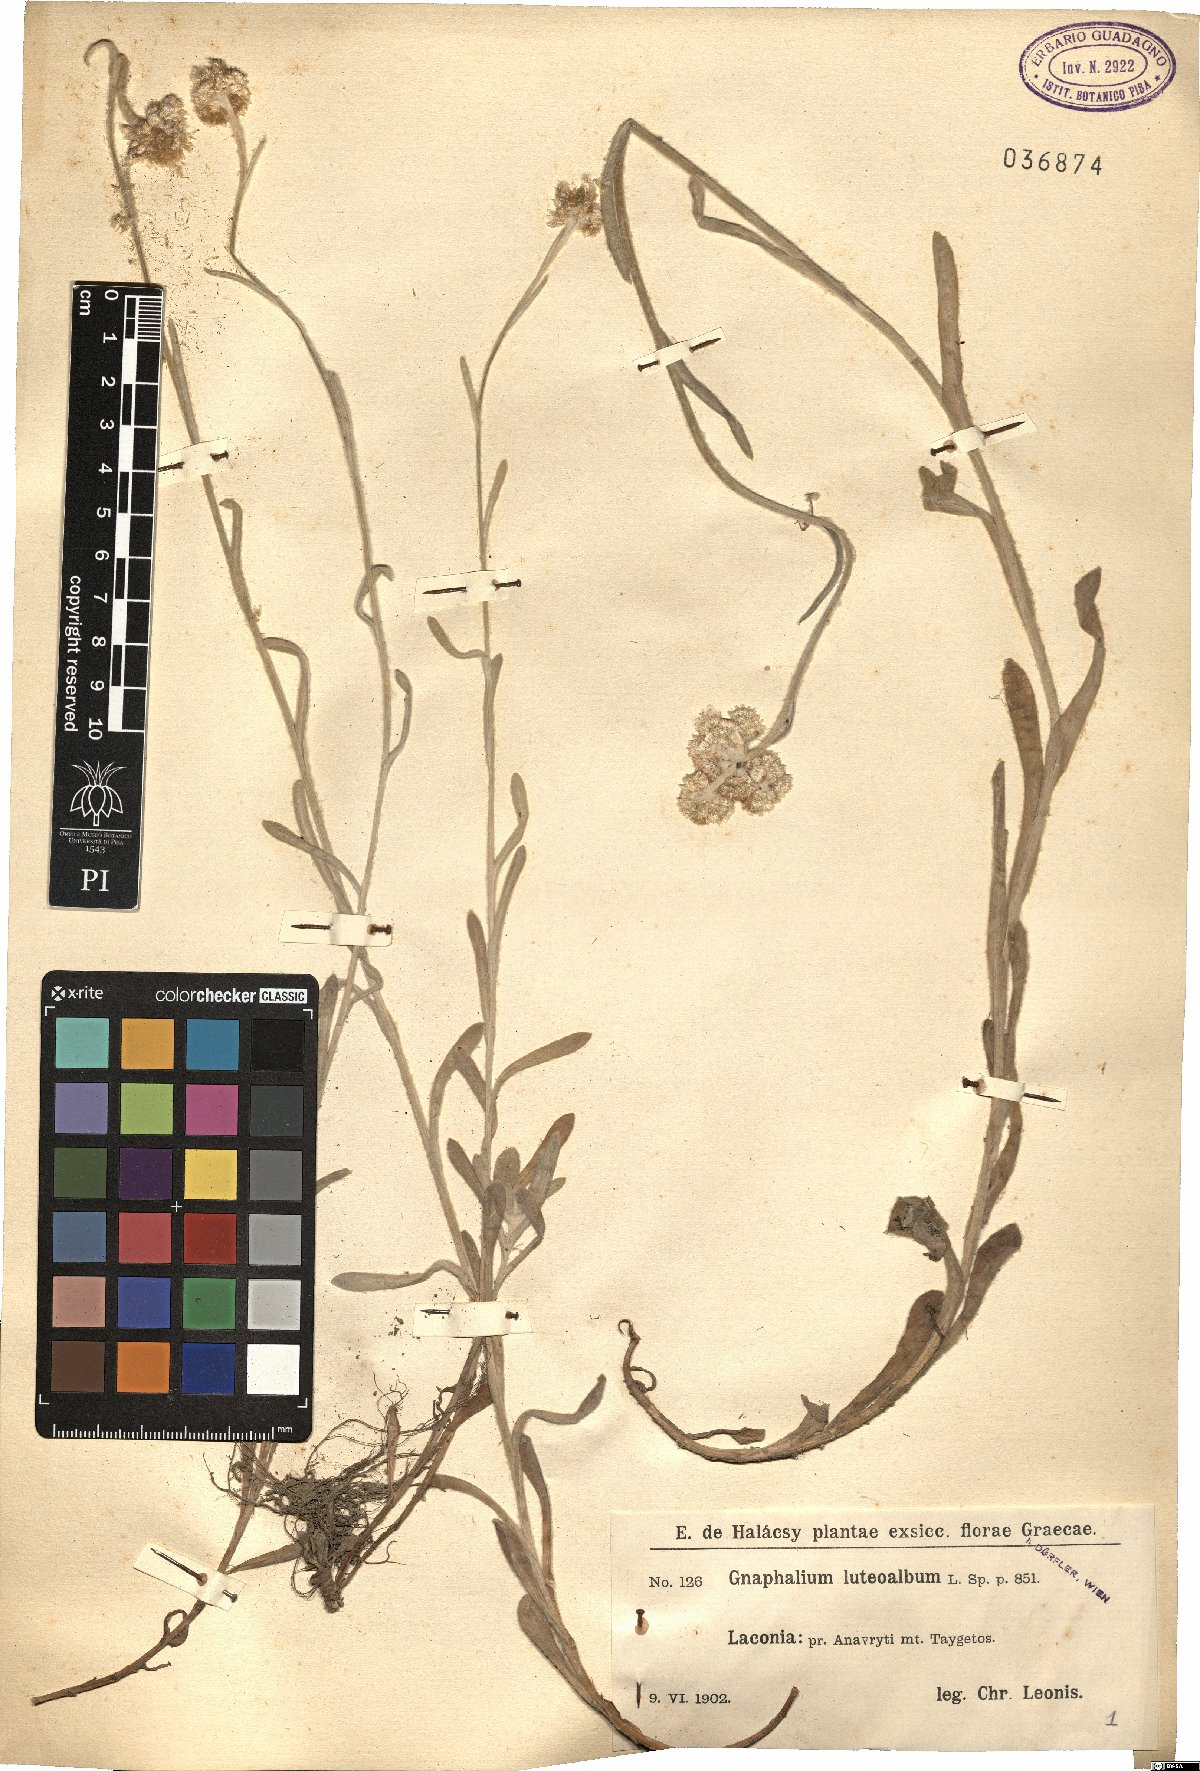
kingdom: Plantae
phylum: Tracheophyta
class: Magnoliopsida
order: Asterales
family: Asteraceae
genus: Helichrysum
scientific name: Helichrysum luteoalbum
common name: Daisy
